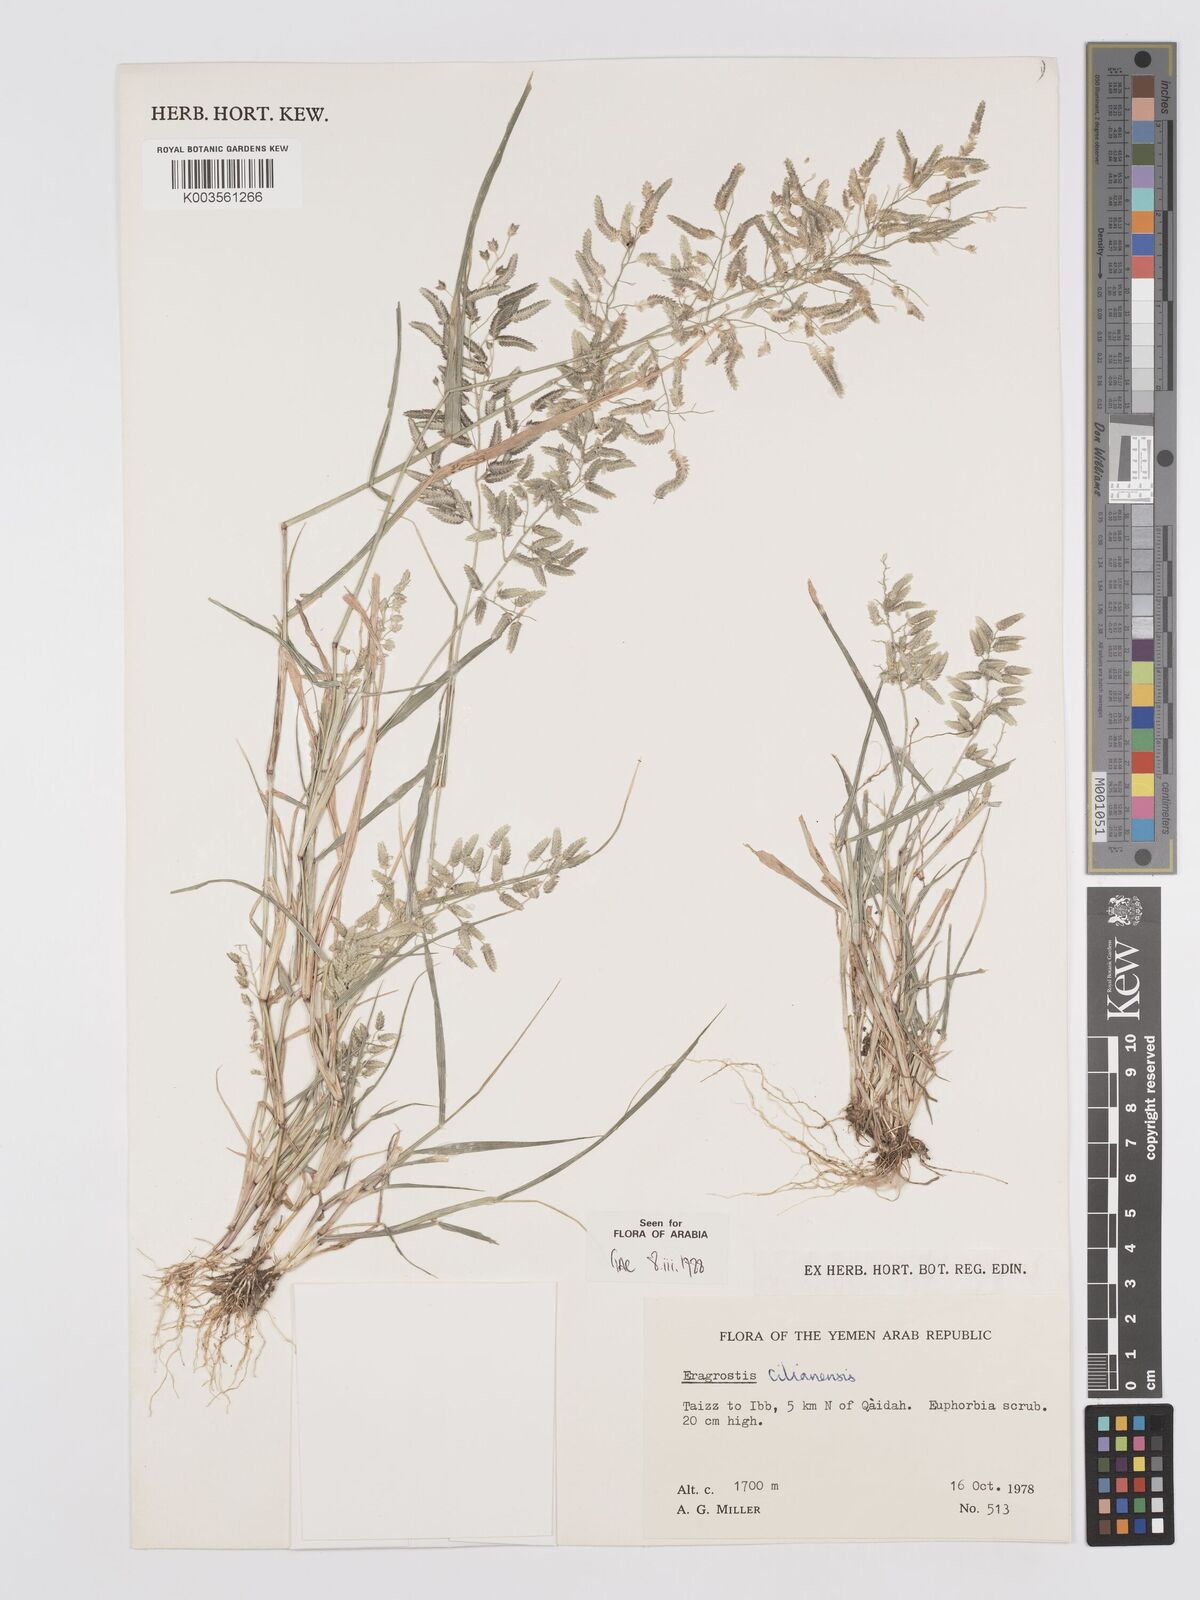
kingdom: Plantae
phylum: Tracheophyta
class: Liliopsida
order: Poales
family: Poaceae
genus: Eragrostis
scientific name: Eragrostis cilianensis
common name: Stinkgrass
